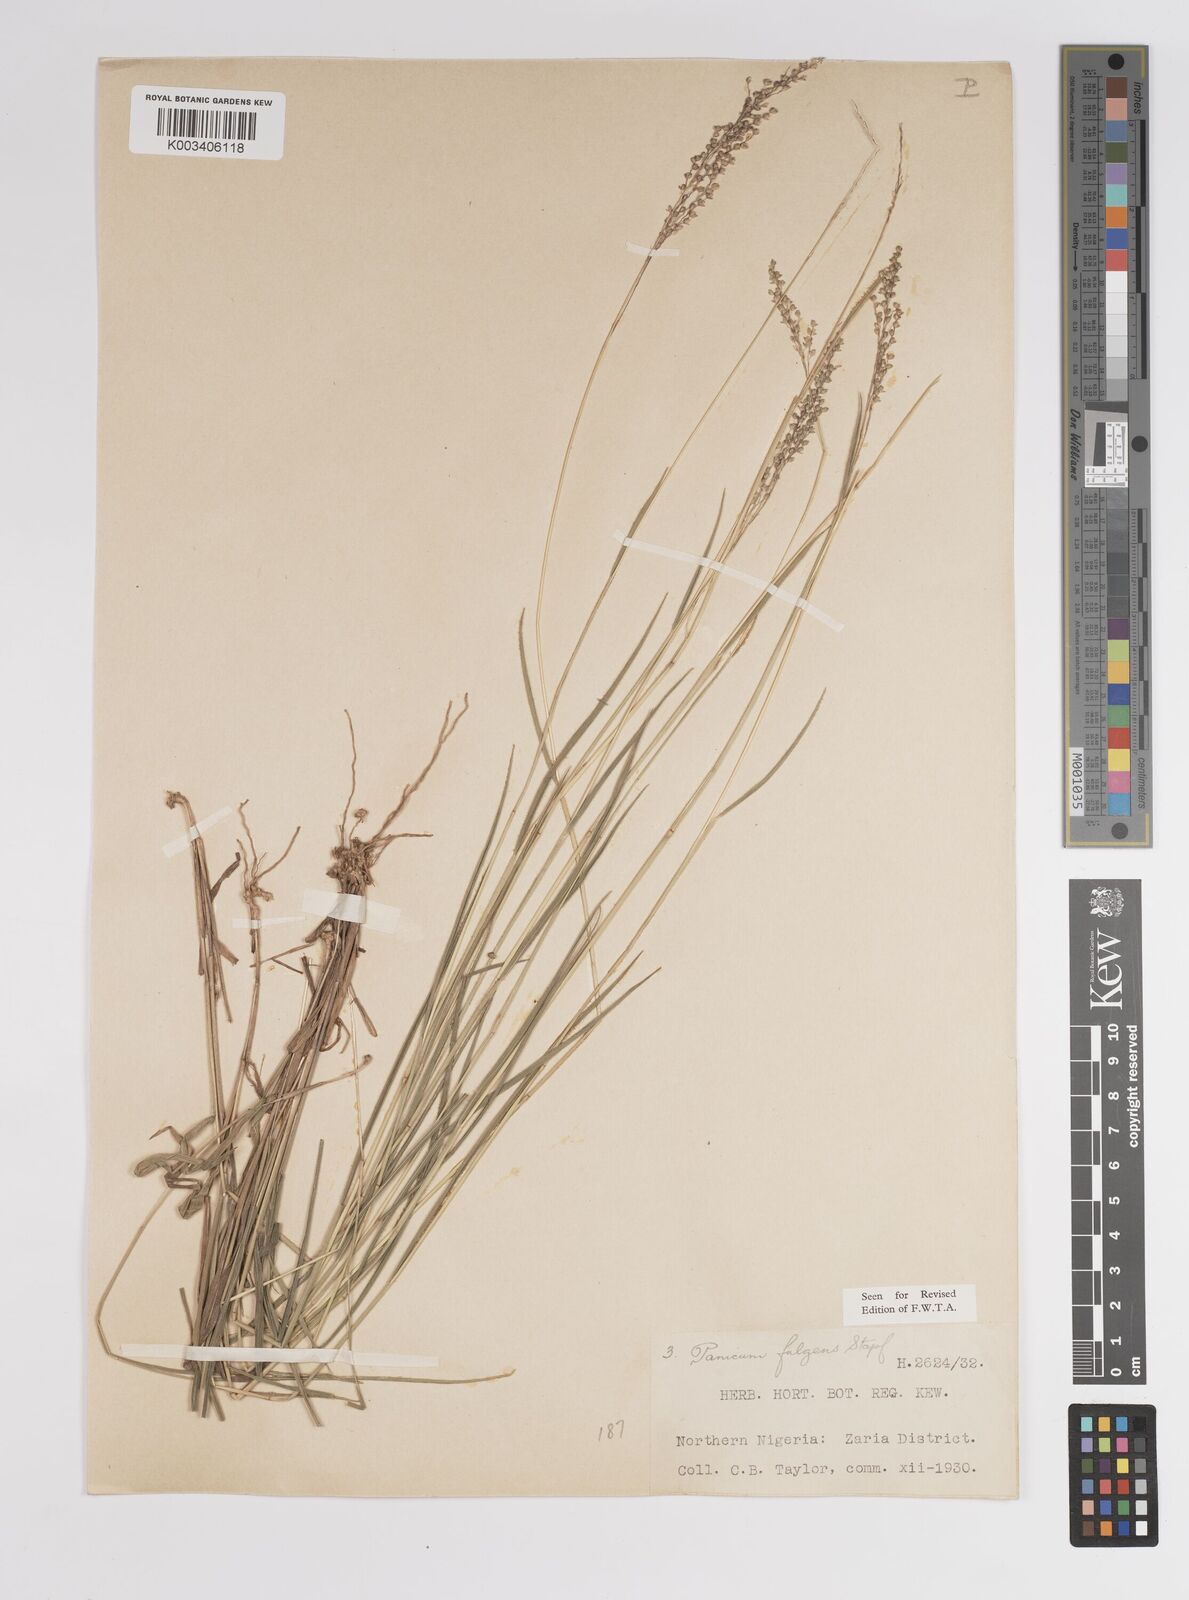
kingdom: Plantae
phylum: Tracheophyta
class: Liliopsida
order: Poales
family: Poaceae
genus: Trichanthecium
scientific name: Trichanthecium nervatum
